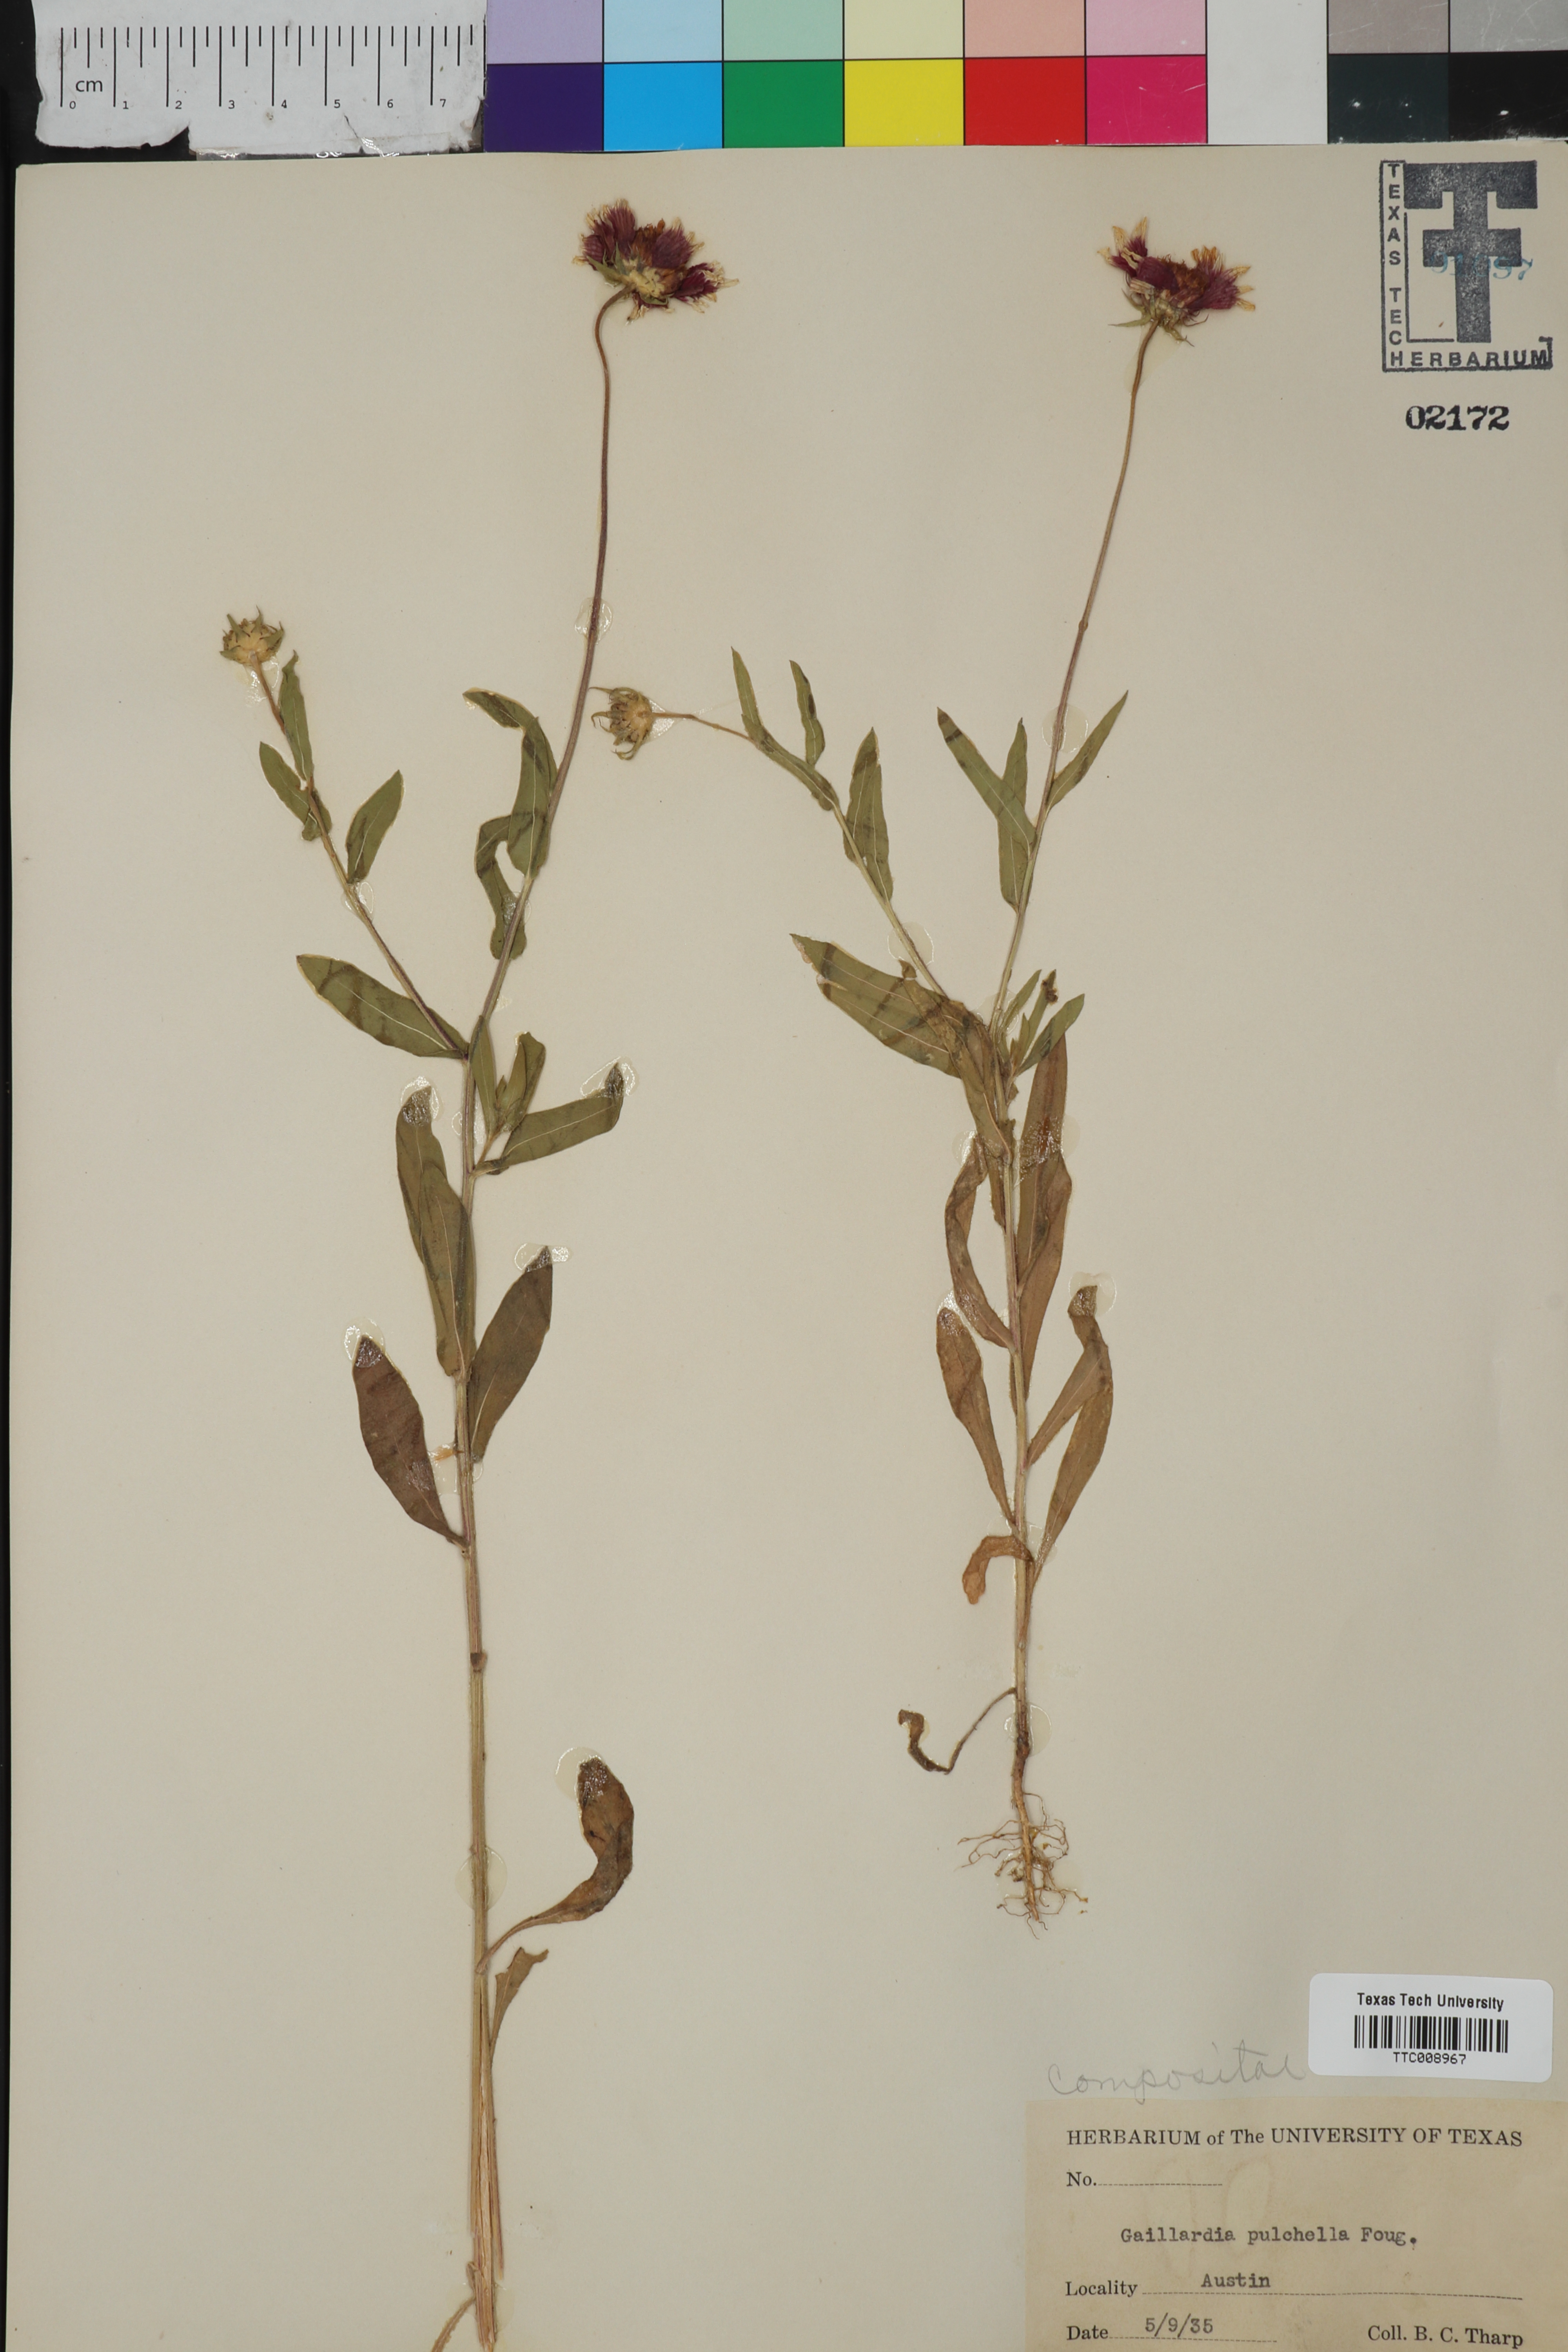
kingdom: Plantae
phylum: Tracheophyta
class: Magnoliopsida
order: Asterales
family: Asteraceae
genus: Gaillardia
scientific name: Gaillardia pulchella
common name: Firewheel
